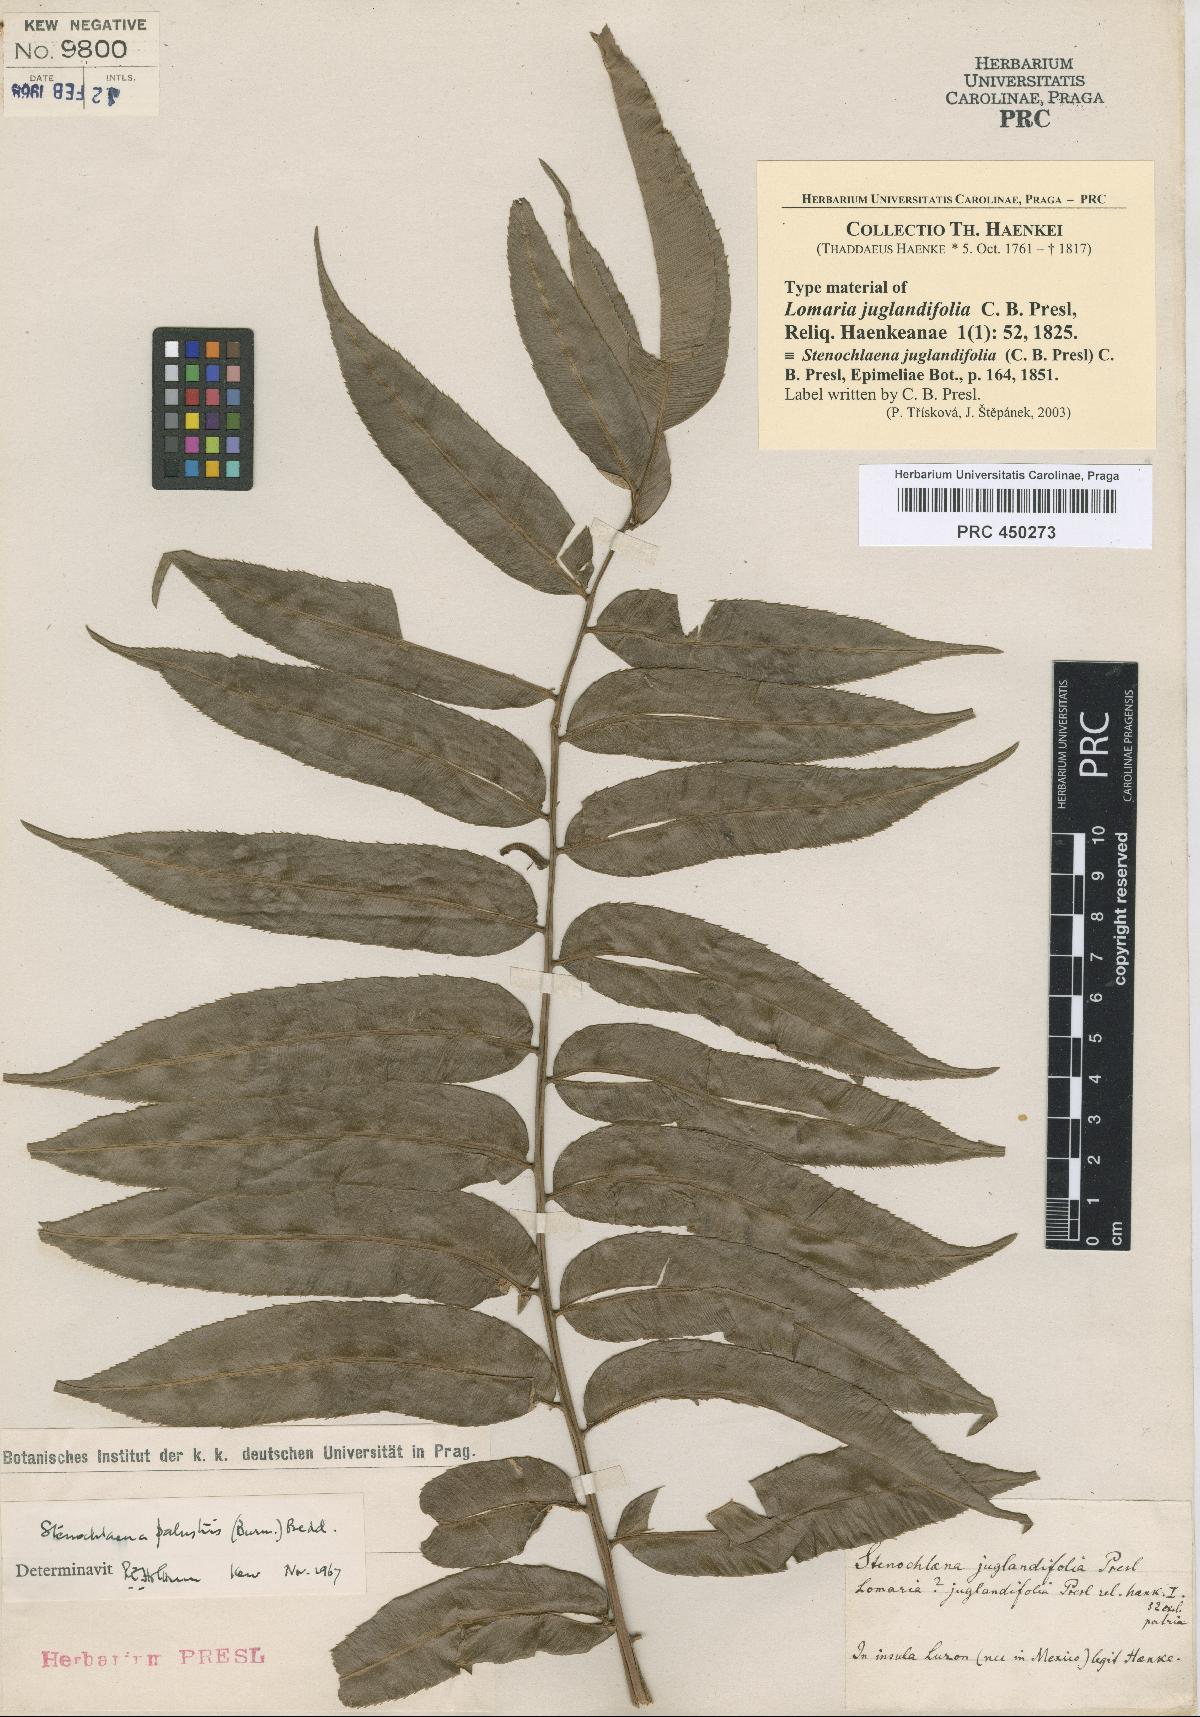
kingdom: Plantae
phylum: Tracheophyta
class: Polypodiopsida
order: Polypodiales
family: Blechnaceae
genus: Stenochlaena
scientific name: Stenochlaena palustris
